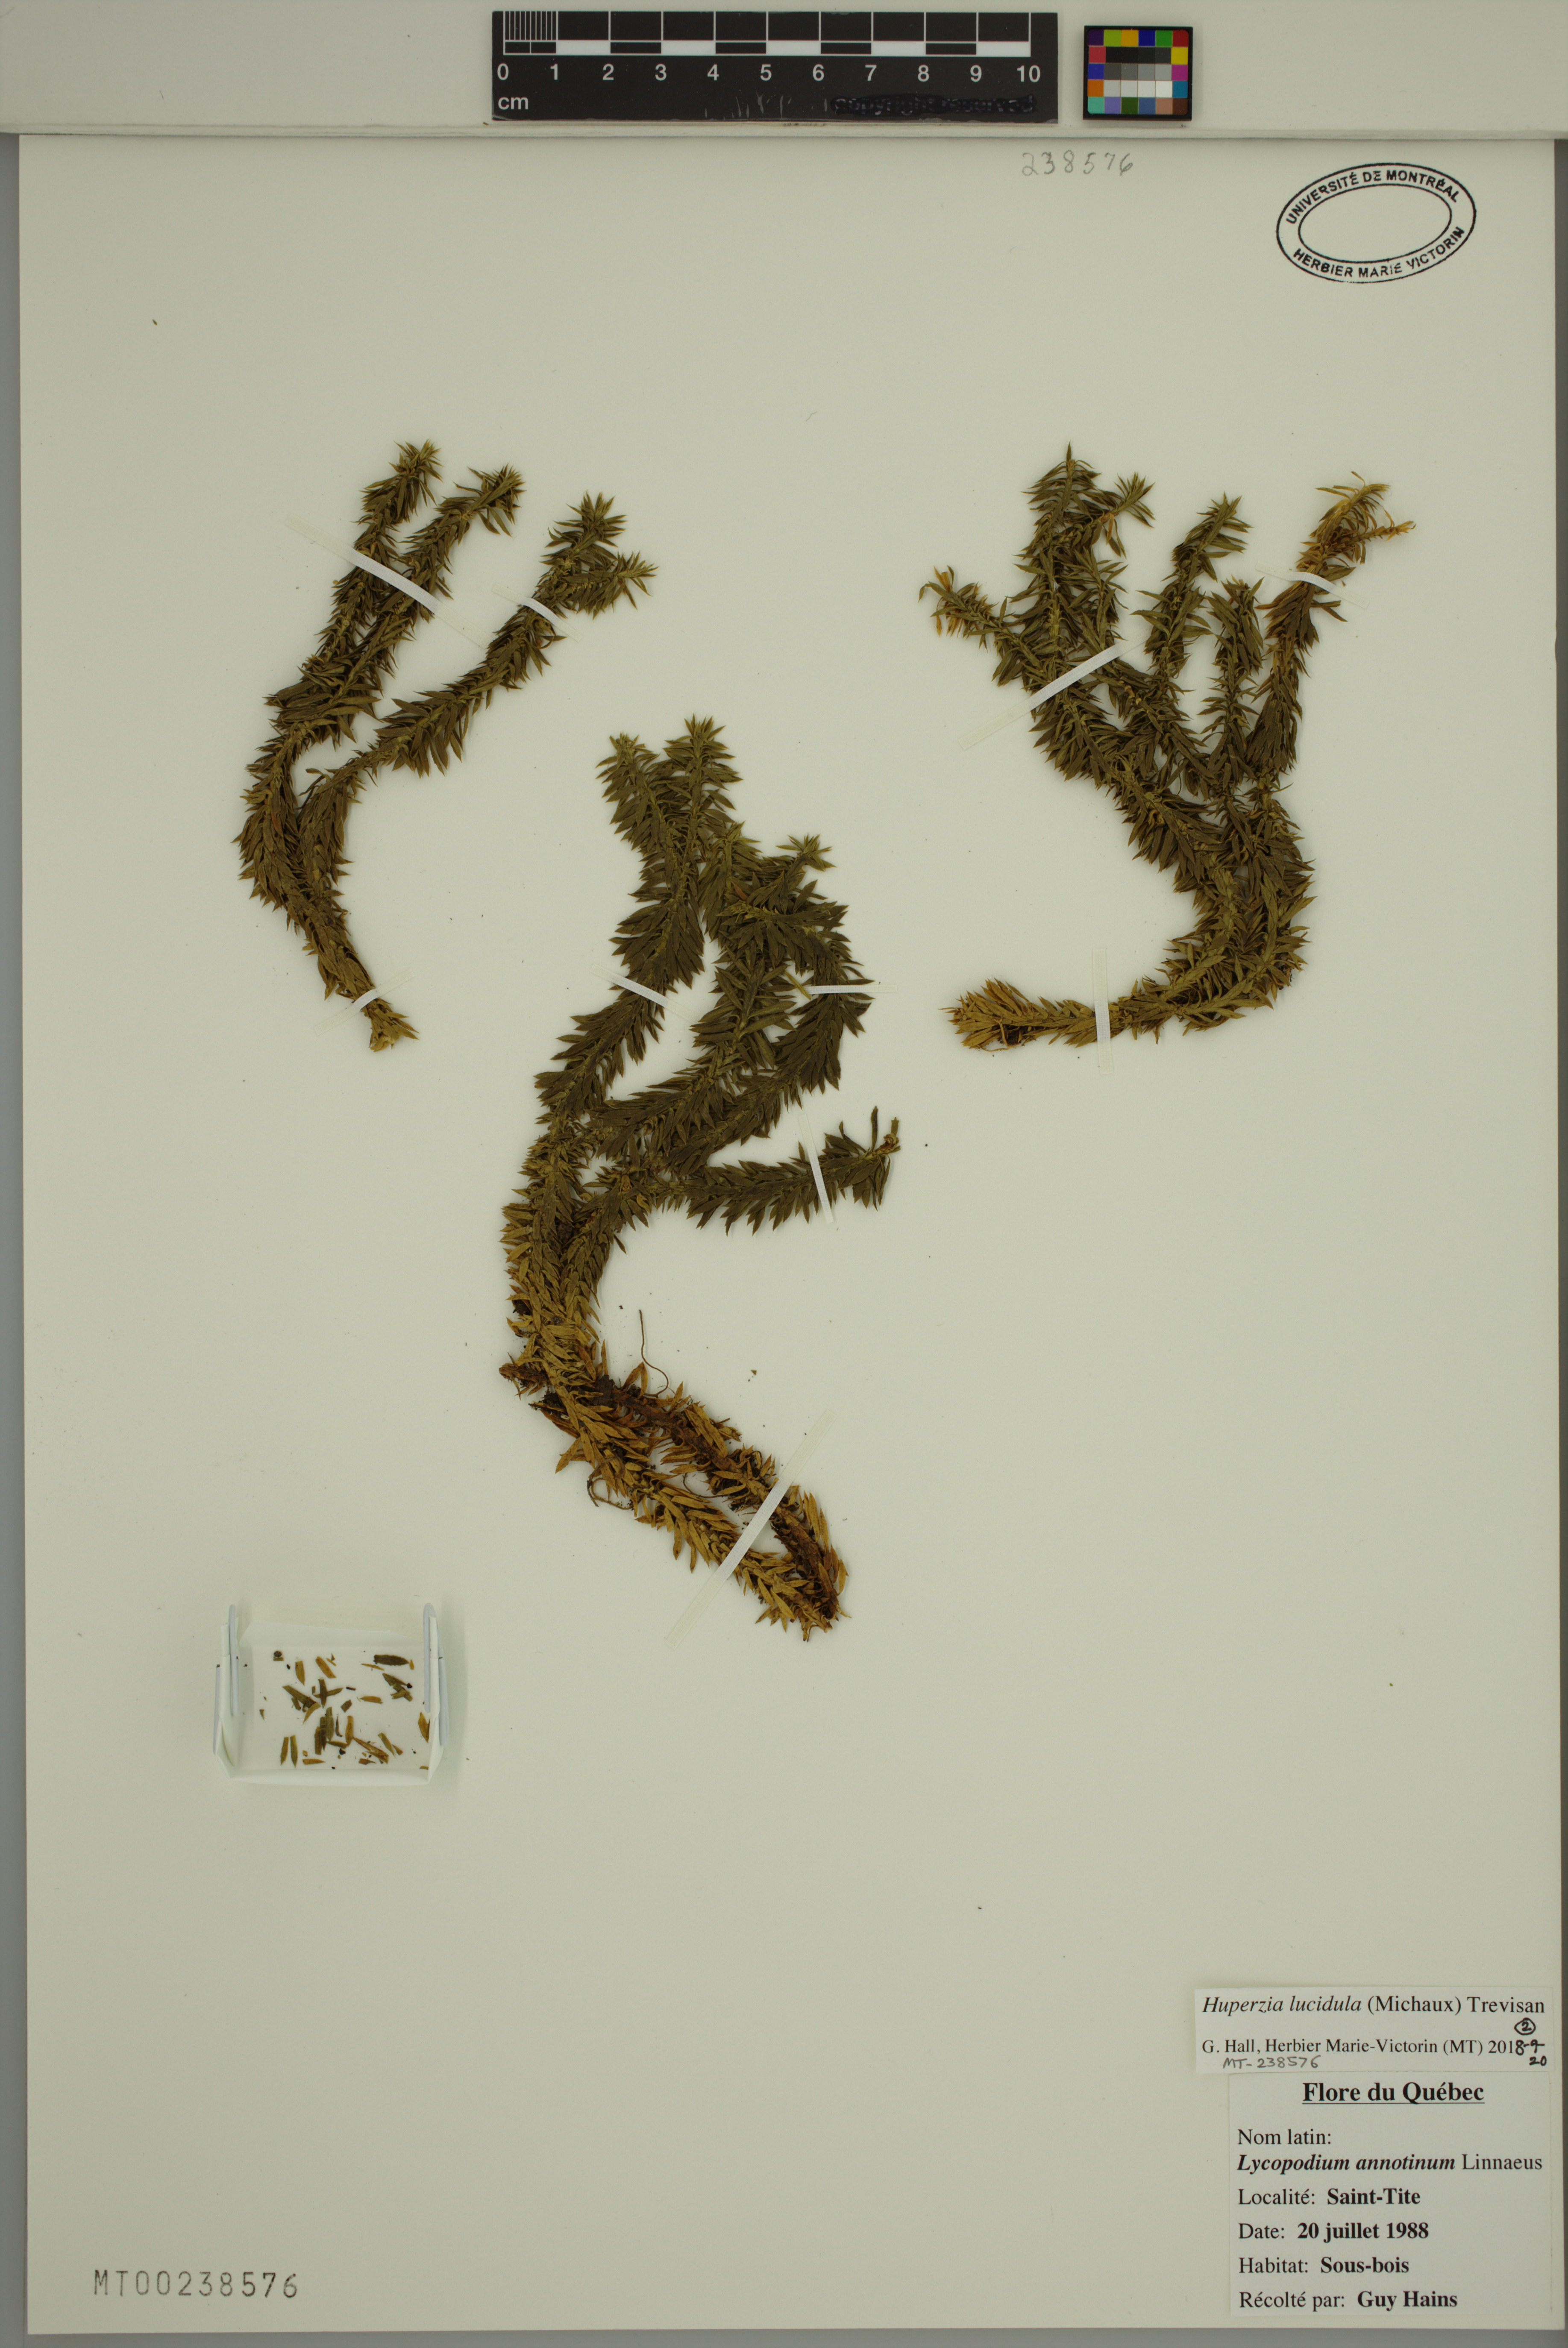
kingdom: Plantae
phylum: Tracheophyta
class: Lycopodiopsida
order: Lycopodiales
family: Lycopodiaceae
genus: Huperzia
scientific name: Huperzia lucidula
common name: Shining clubmoss
